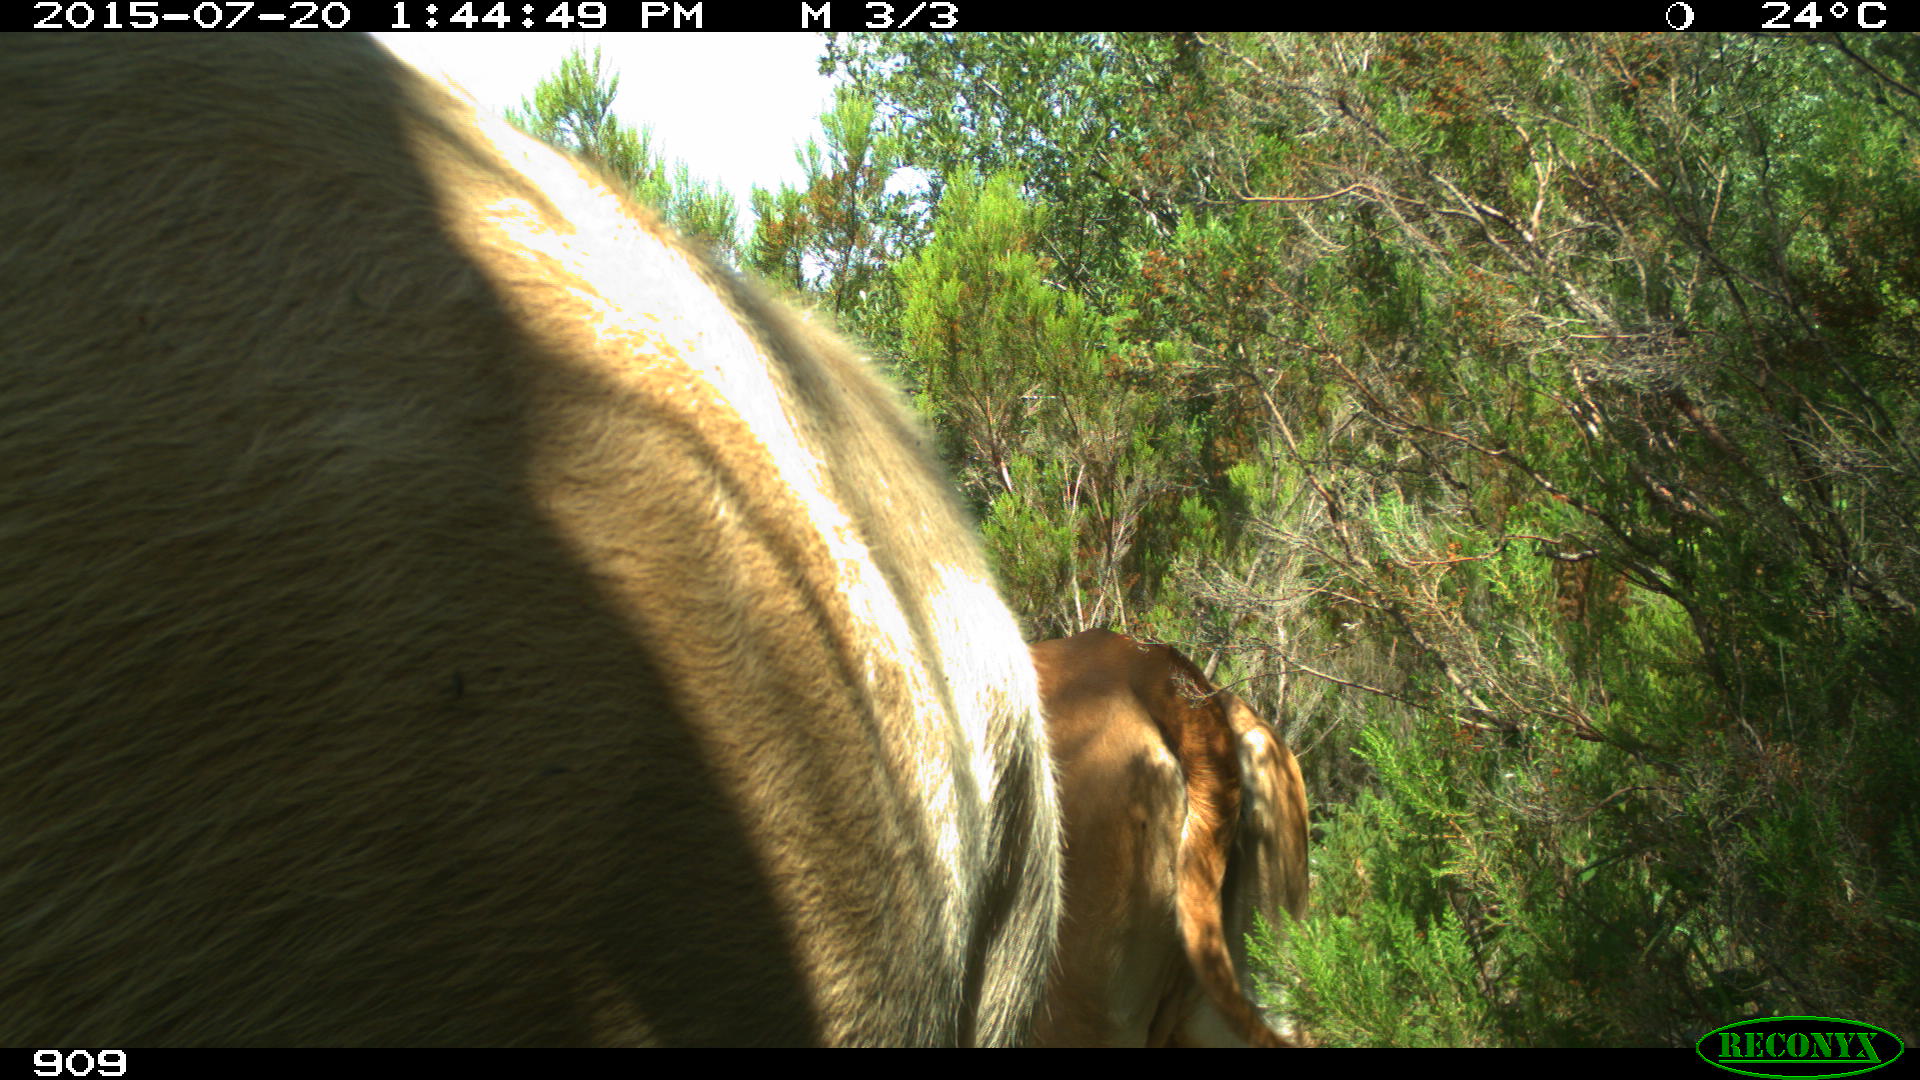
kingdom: Animalia
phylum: Chordata
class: Mammalia
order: Artiodactyla
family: Bovidae
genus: Bos
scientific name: Bos taurus
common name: Domesticated cattle
